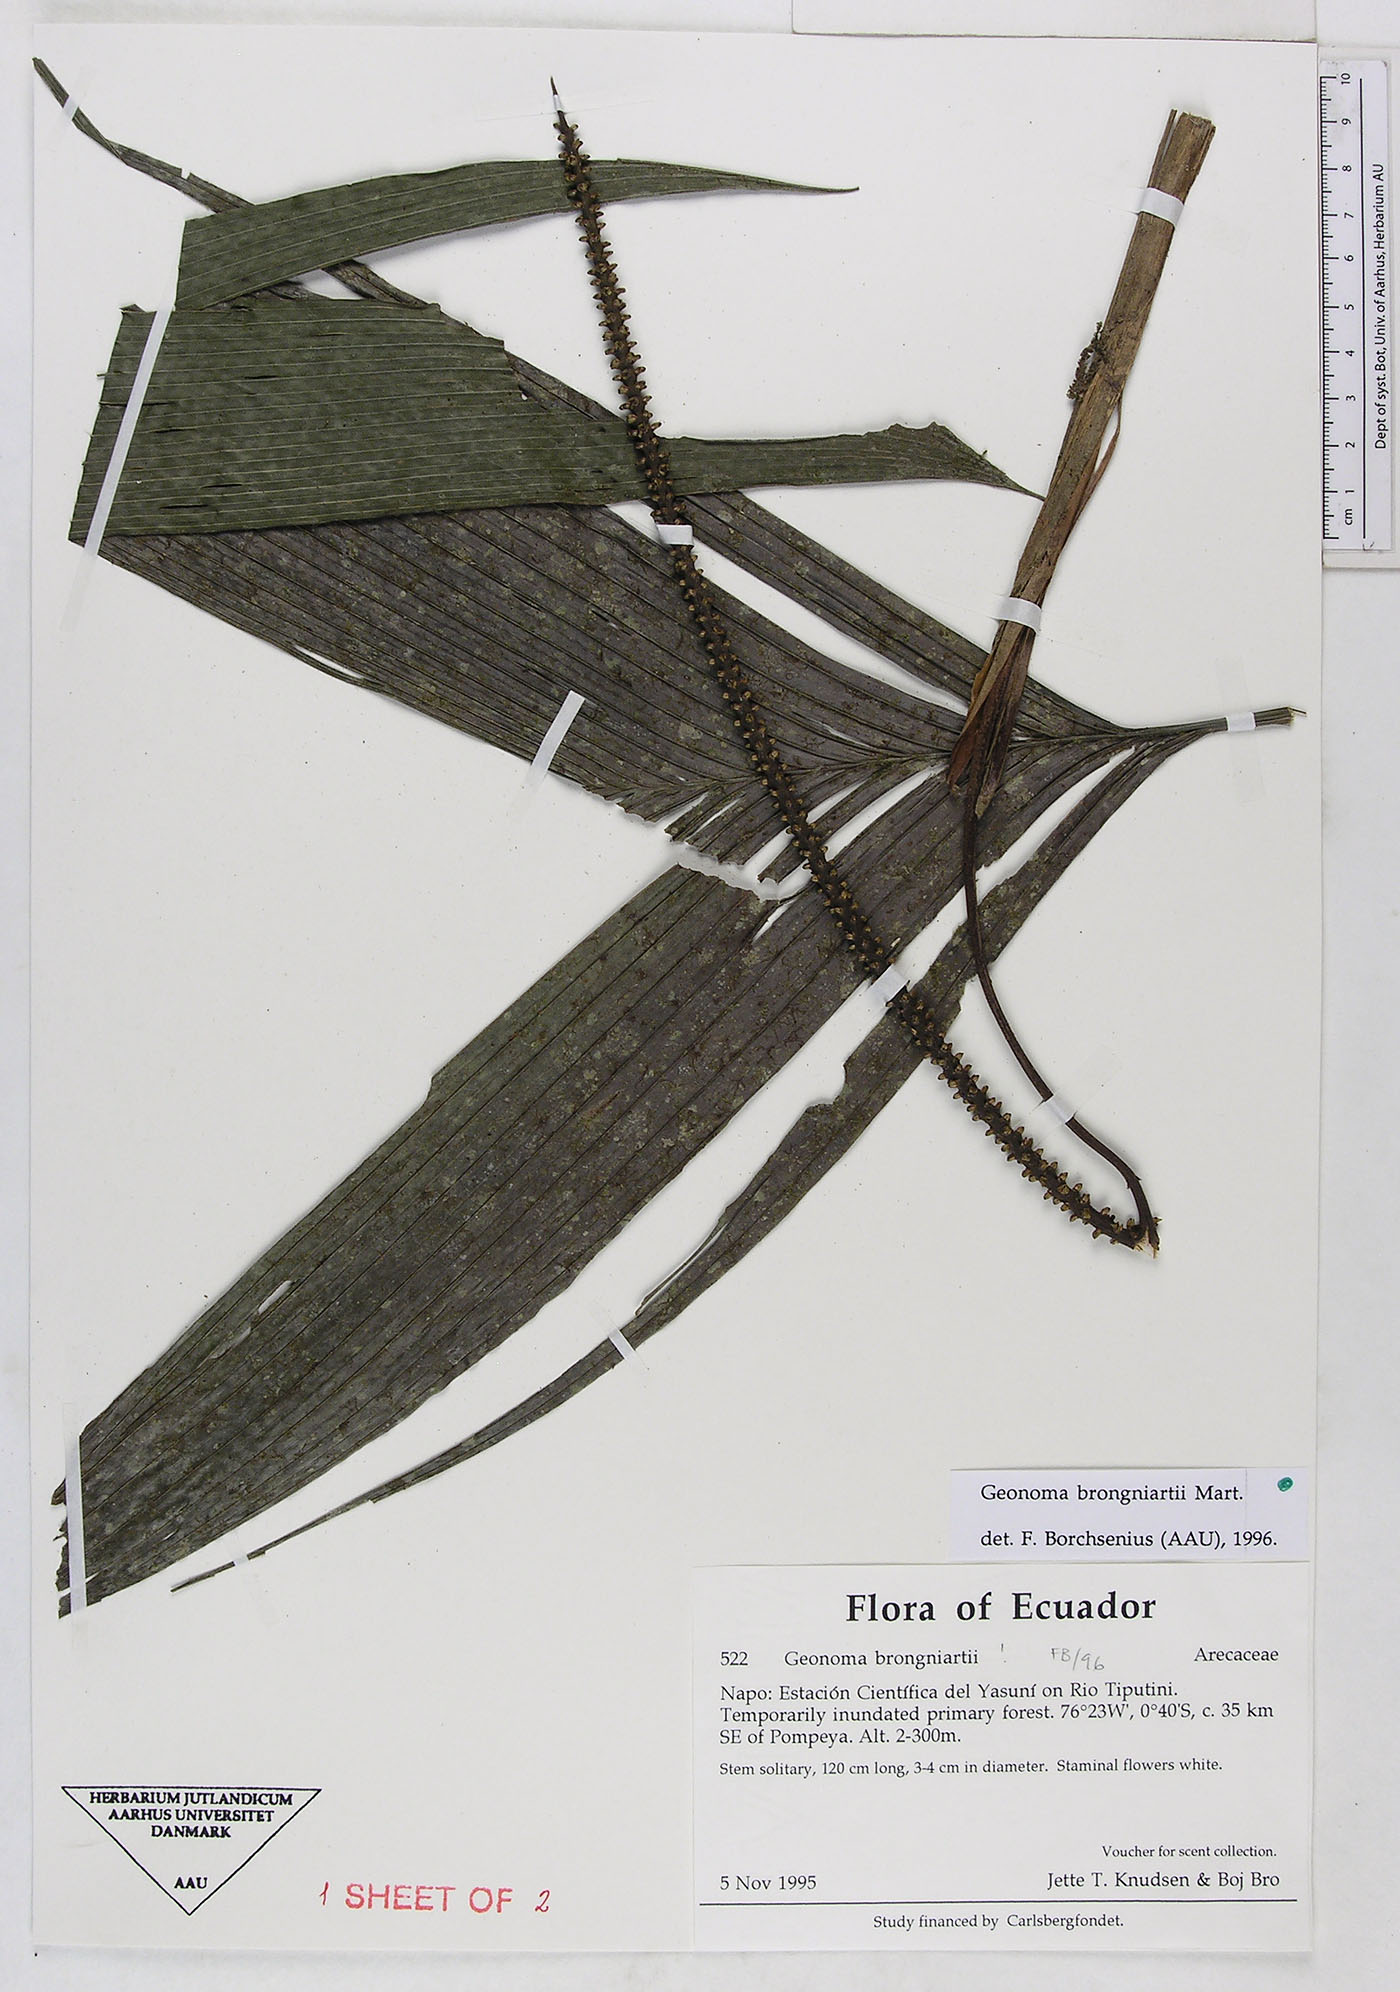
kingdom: Plantae
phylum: Tracheophyta
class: Liliopsida
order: Arecales
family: Arecaceae
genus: Geonoma
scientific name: Geonoma brongniartii
